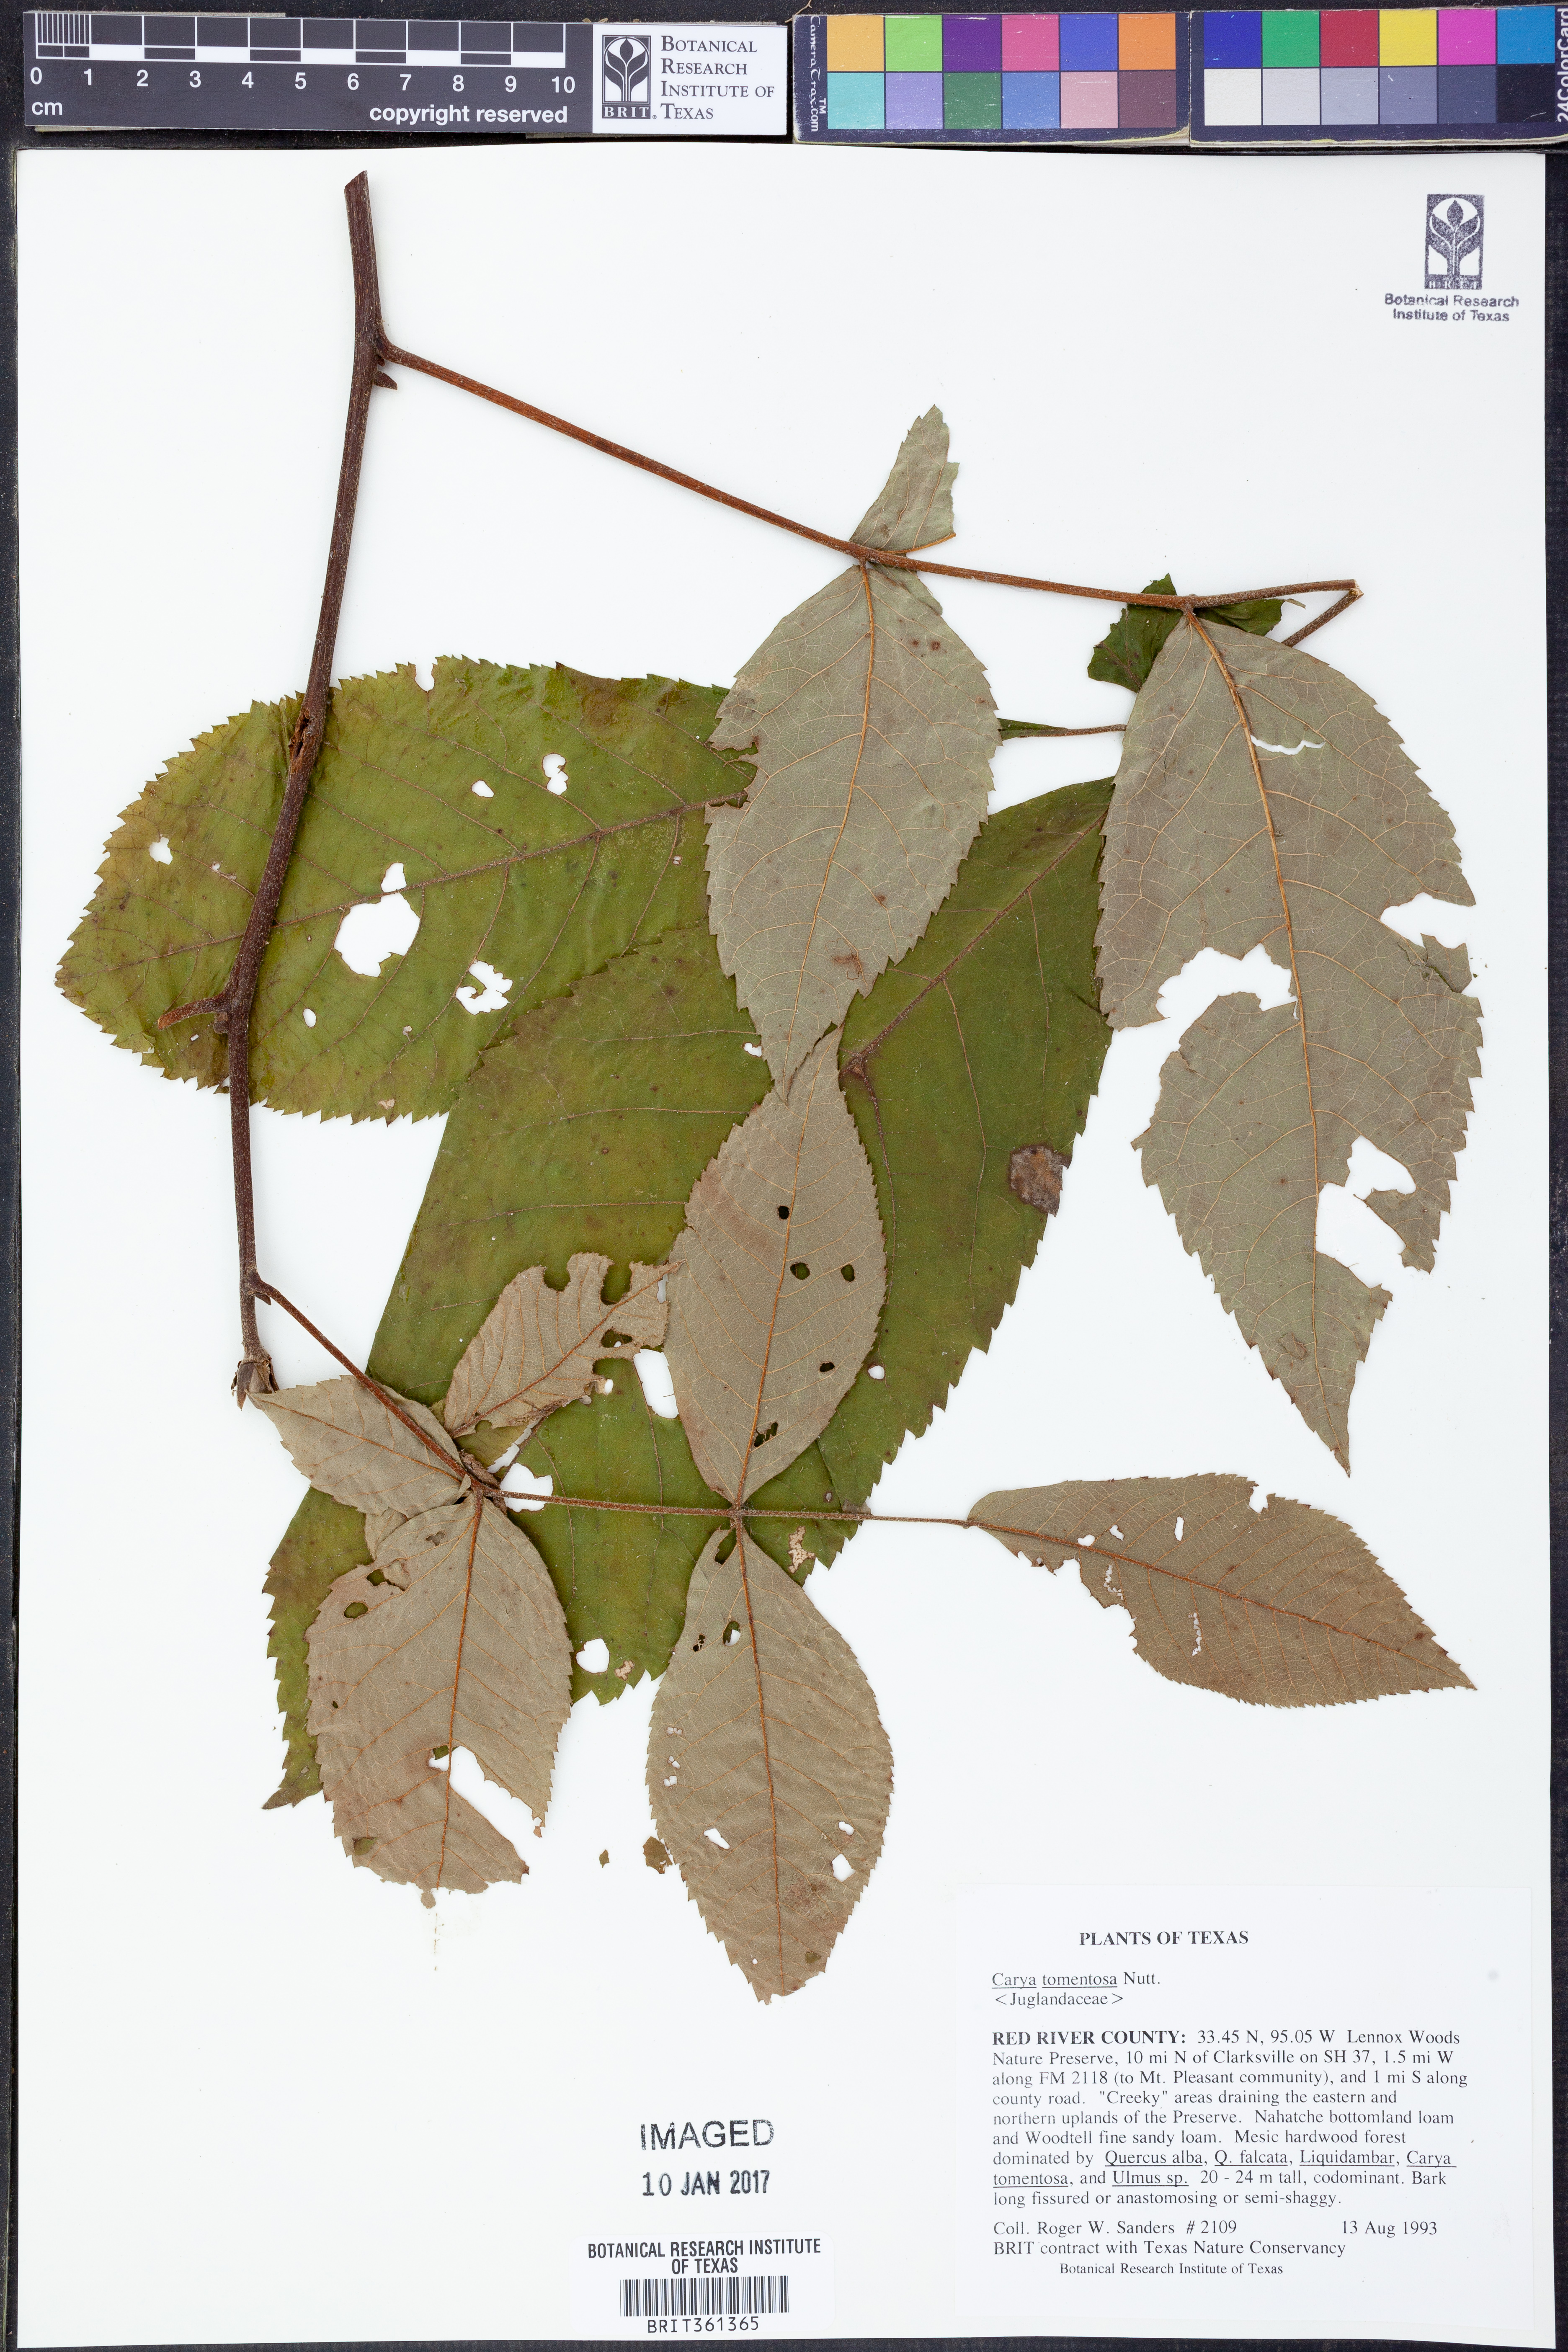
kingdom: Plantae
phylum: Tracheophyta
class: Magnoliopsida
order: Fagales
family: Juglandaceae
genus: Carya
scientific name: Carya alba
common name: Mockernut hickory
